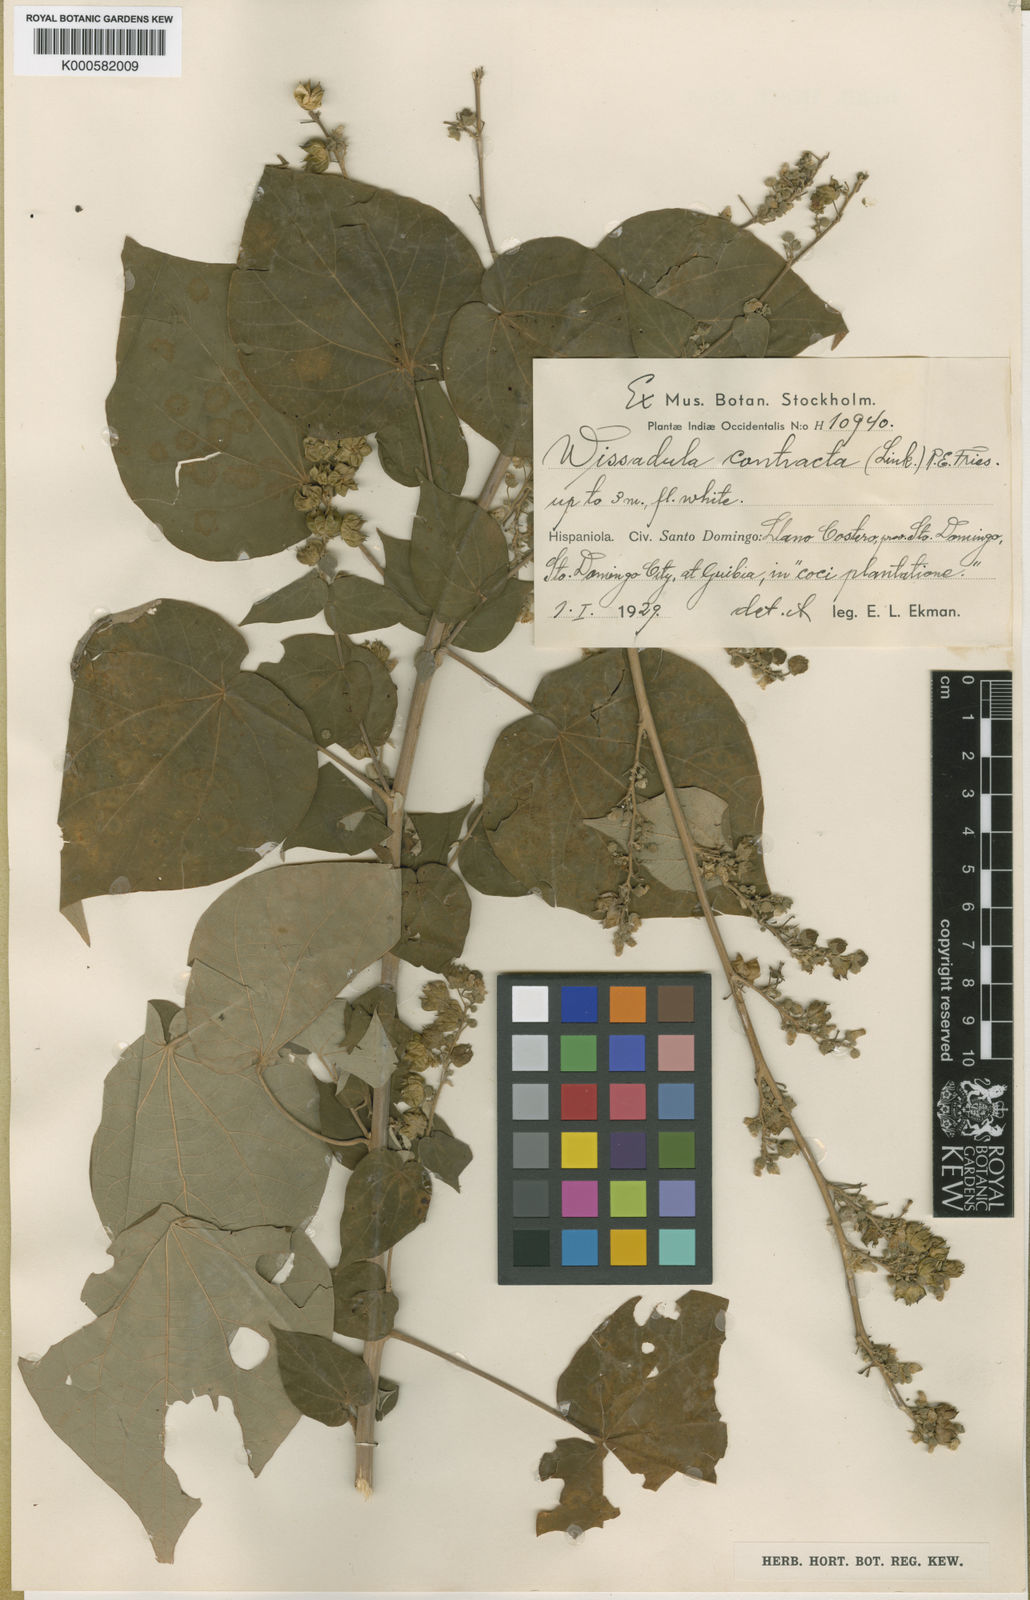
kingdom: Plantae
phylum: Tracheophyta
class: Magnoliopsida
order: Malvales
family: Malvaceae
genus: Wissadula
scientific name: Wissadula contracta
